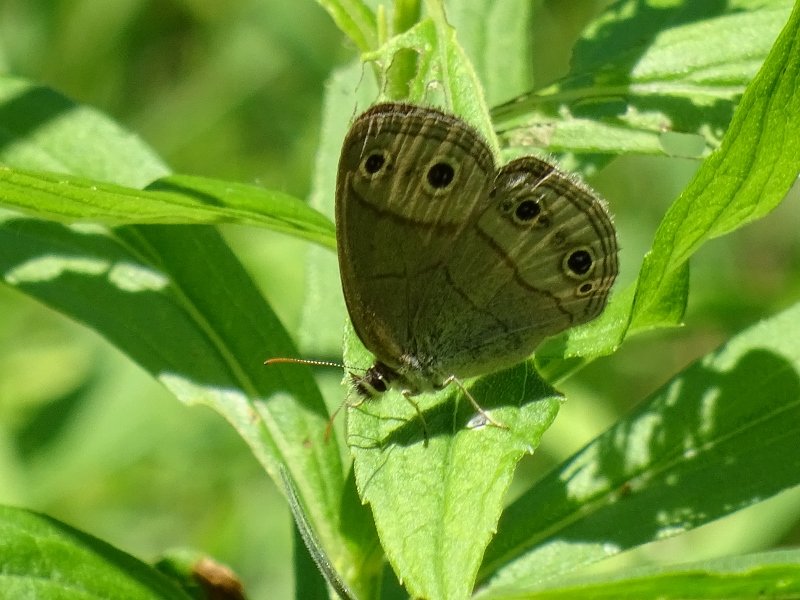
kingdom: Animalia
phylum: Arthropoda
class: Insecta
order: Lepidoptera
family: Nymphalidae
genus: Euptychia
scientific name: Euptychia cymela
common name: Little Wood Satyr
